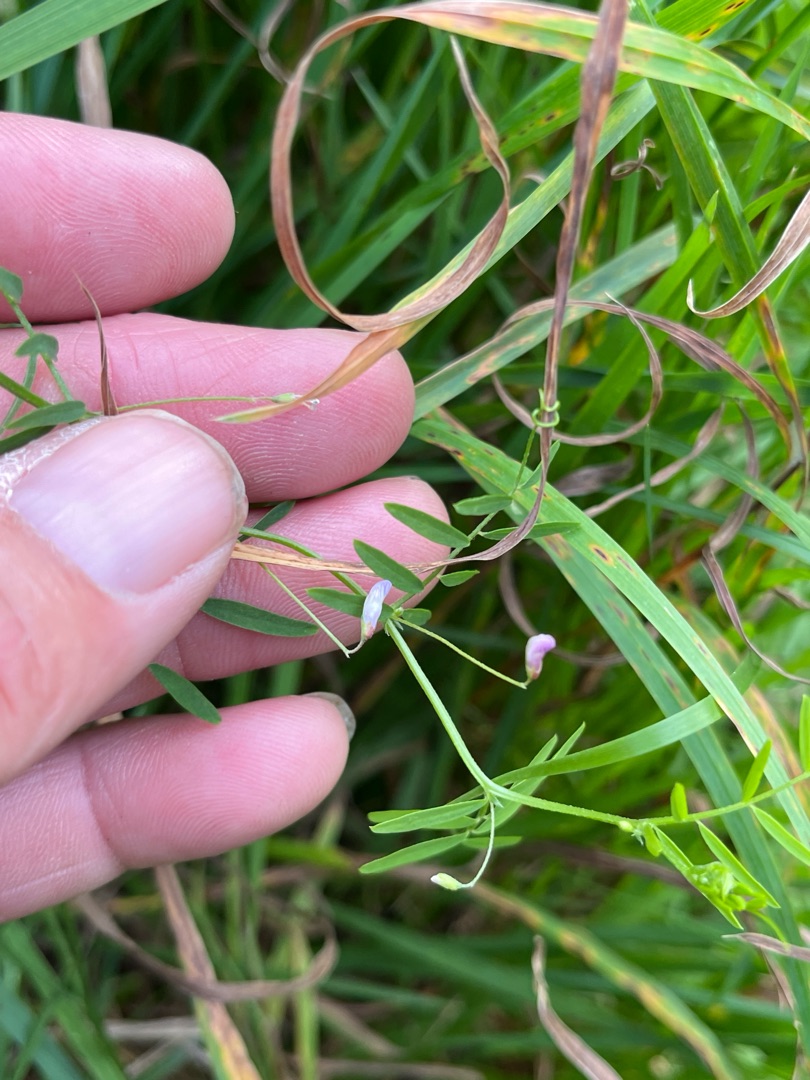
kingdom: Plantae
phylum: Tracheophyta
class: Magnoliopsida
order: Fabales
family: Fabaceae
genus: Vicia
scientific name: Vicia tetrasperma
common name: Tadder-vikke
